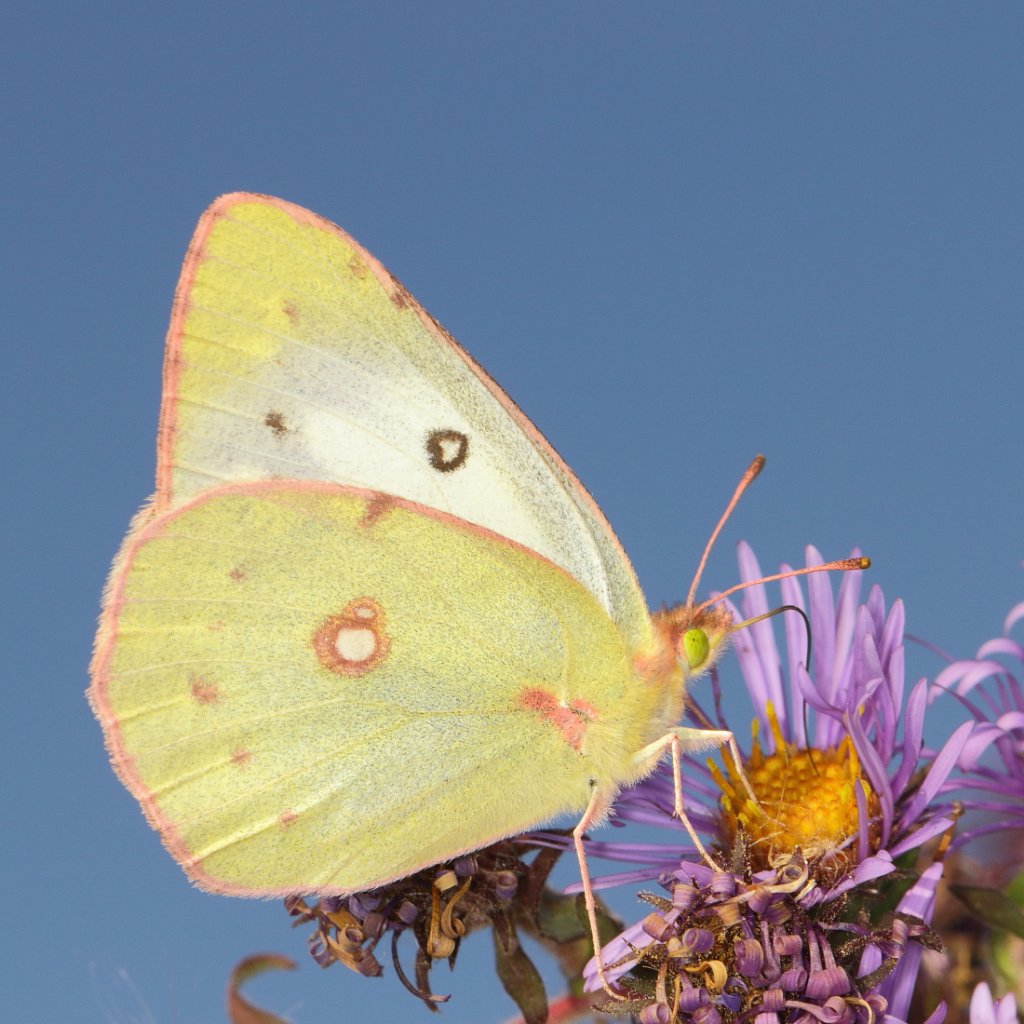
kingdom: Animalia
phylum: Arthropoda
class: Insecta
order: Lepidoptera
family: Pieridae
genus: Colias
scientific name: Colias philodice
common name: Clouded Sulphur
